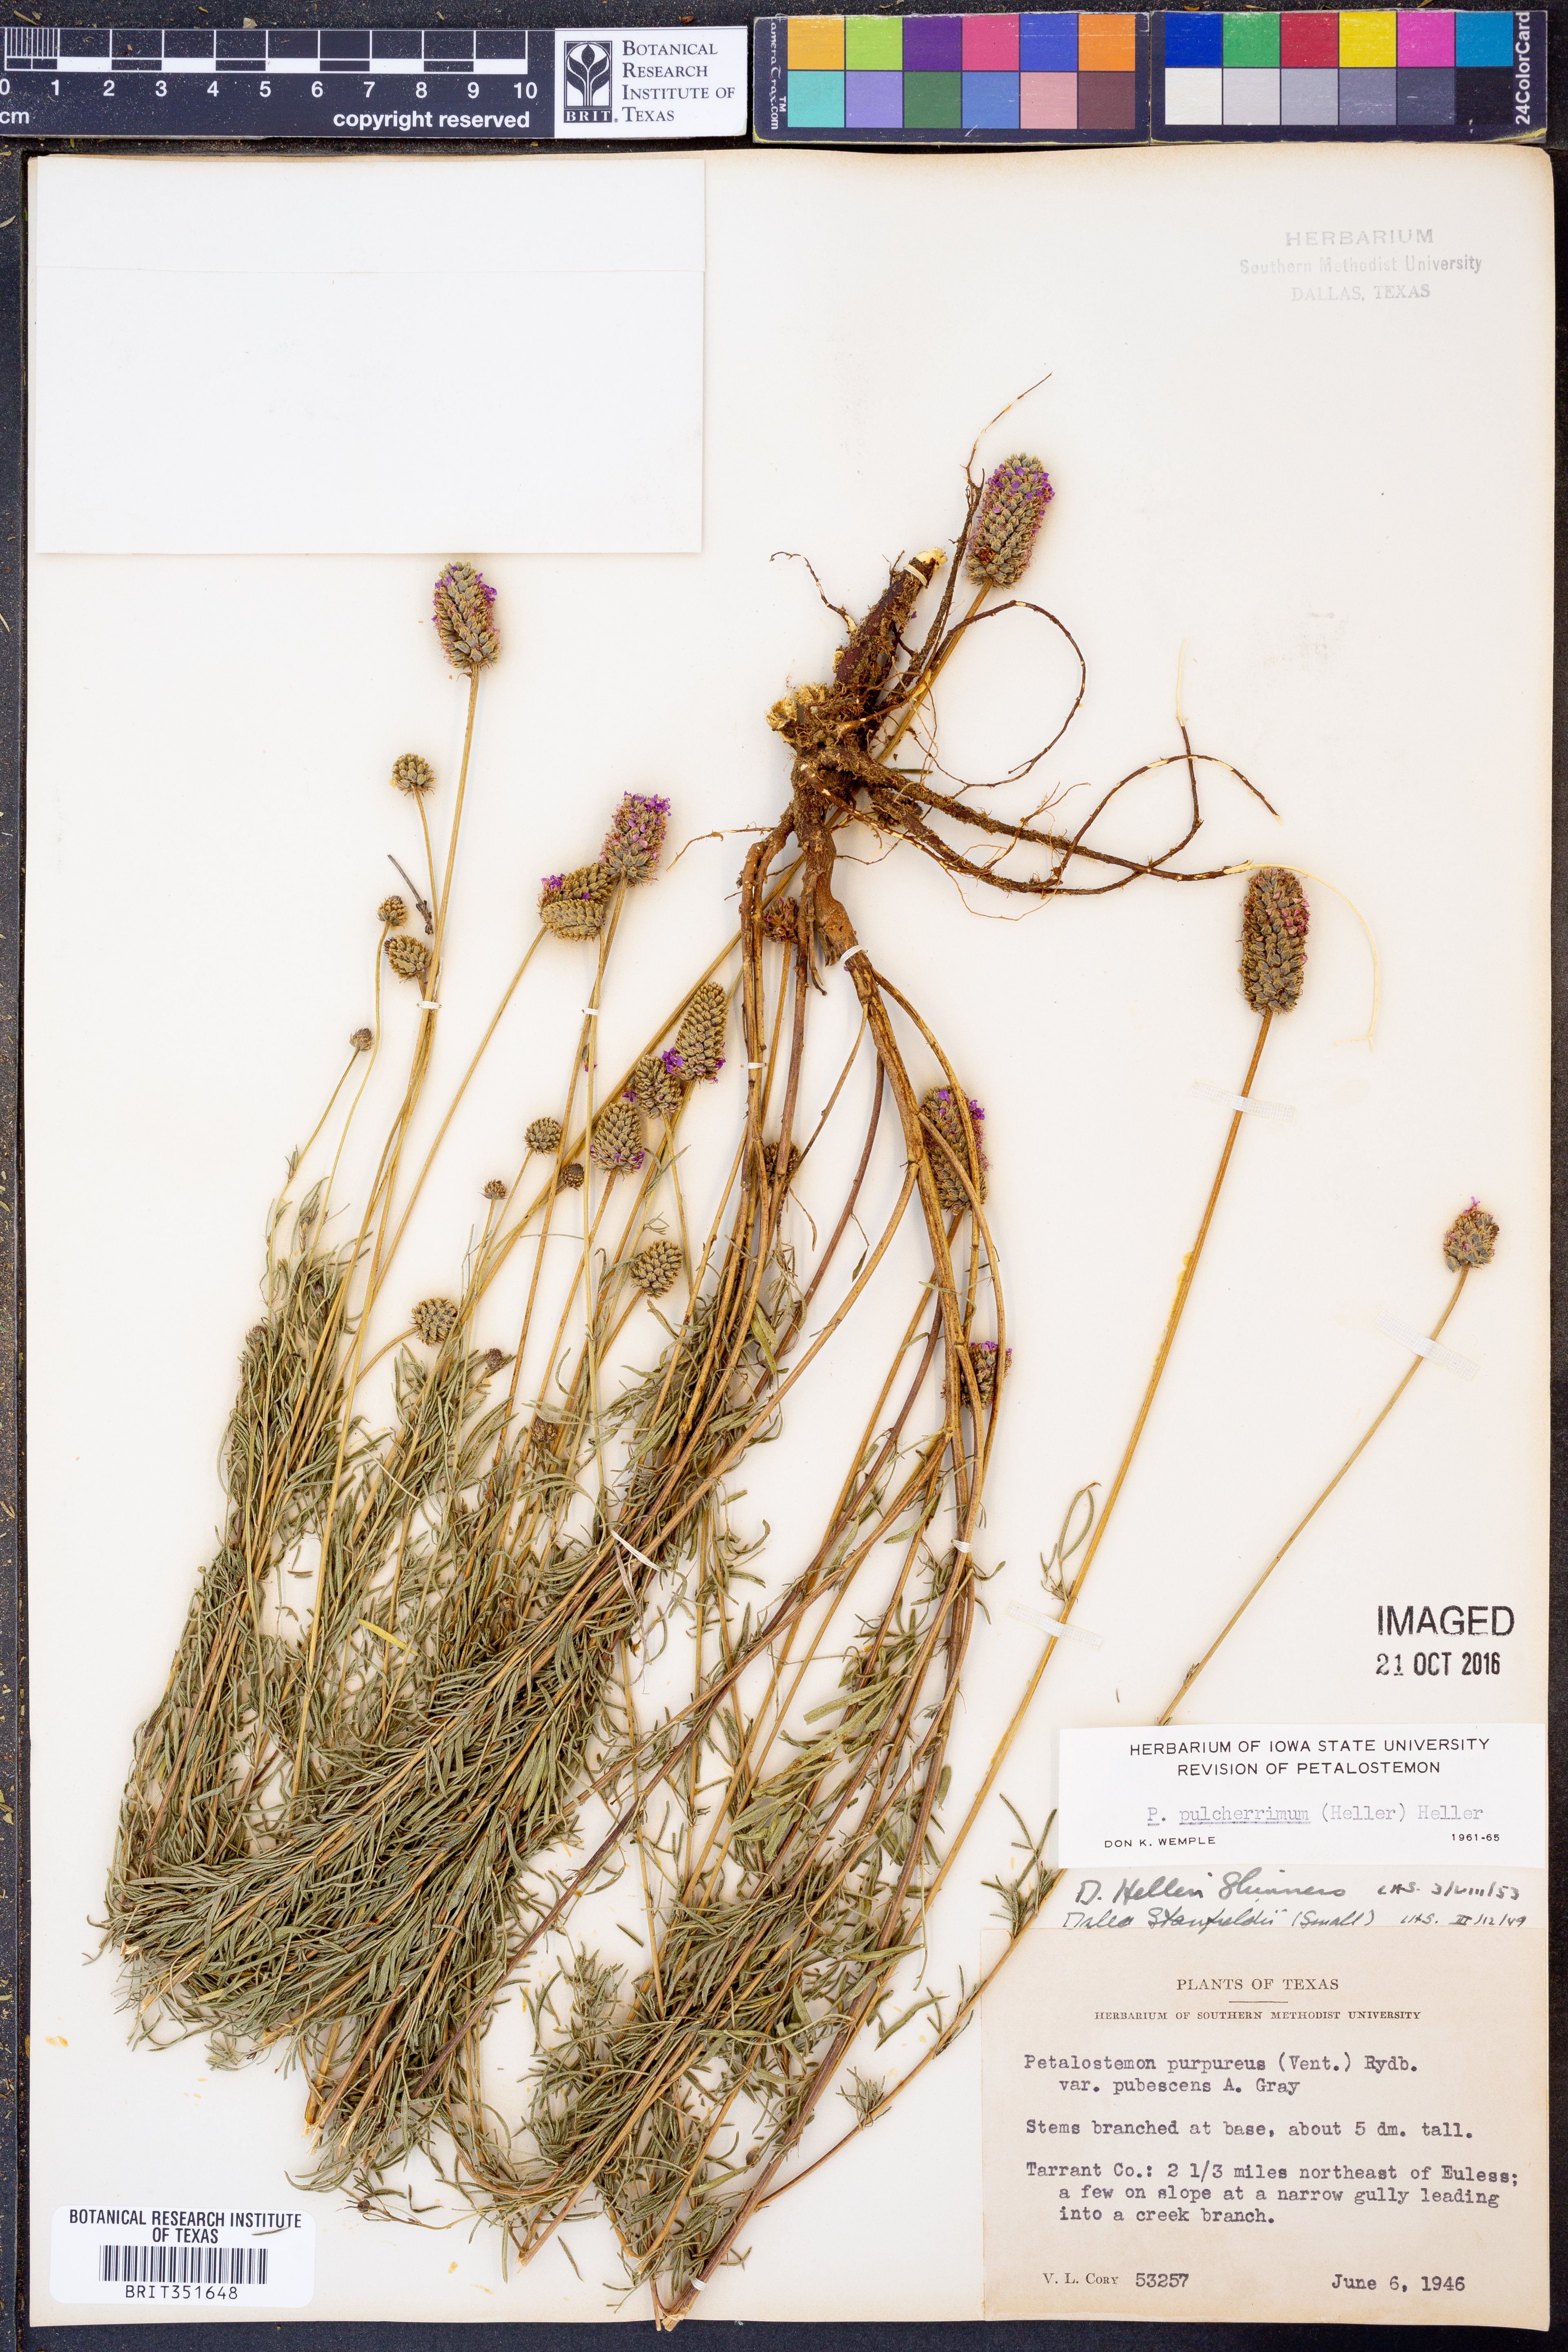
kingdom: Plantae
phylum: Tracheophyta
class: Magnoliopsida
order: Fabales
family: Fabaceae
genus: Dalea
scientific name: Dalea
